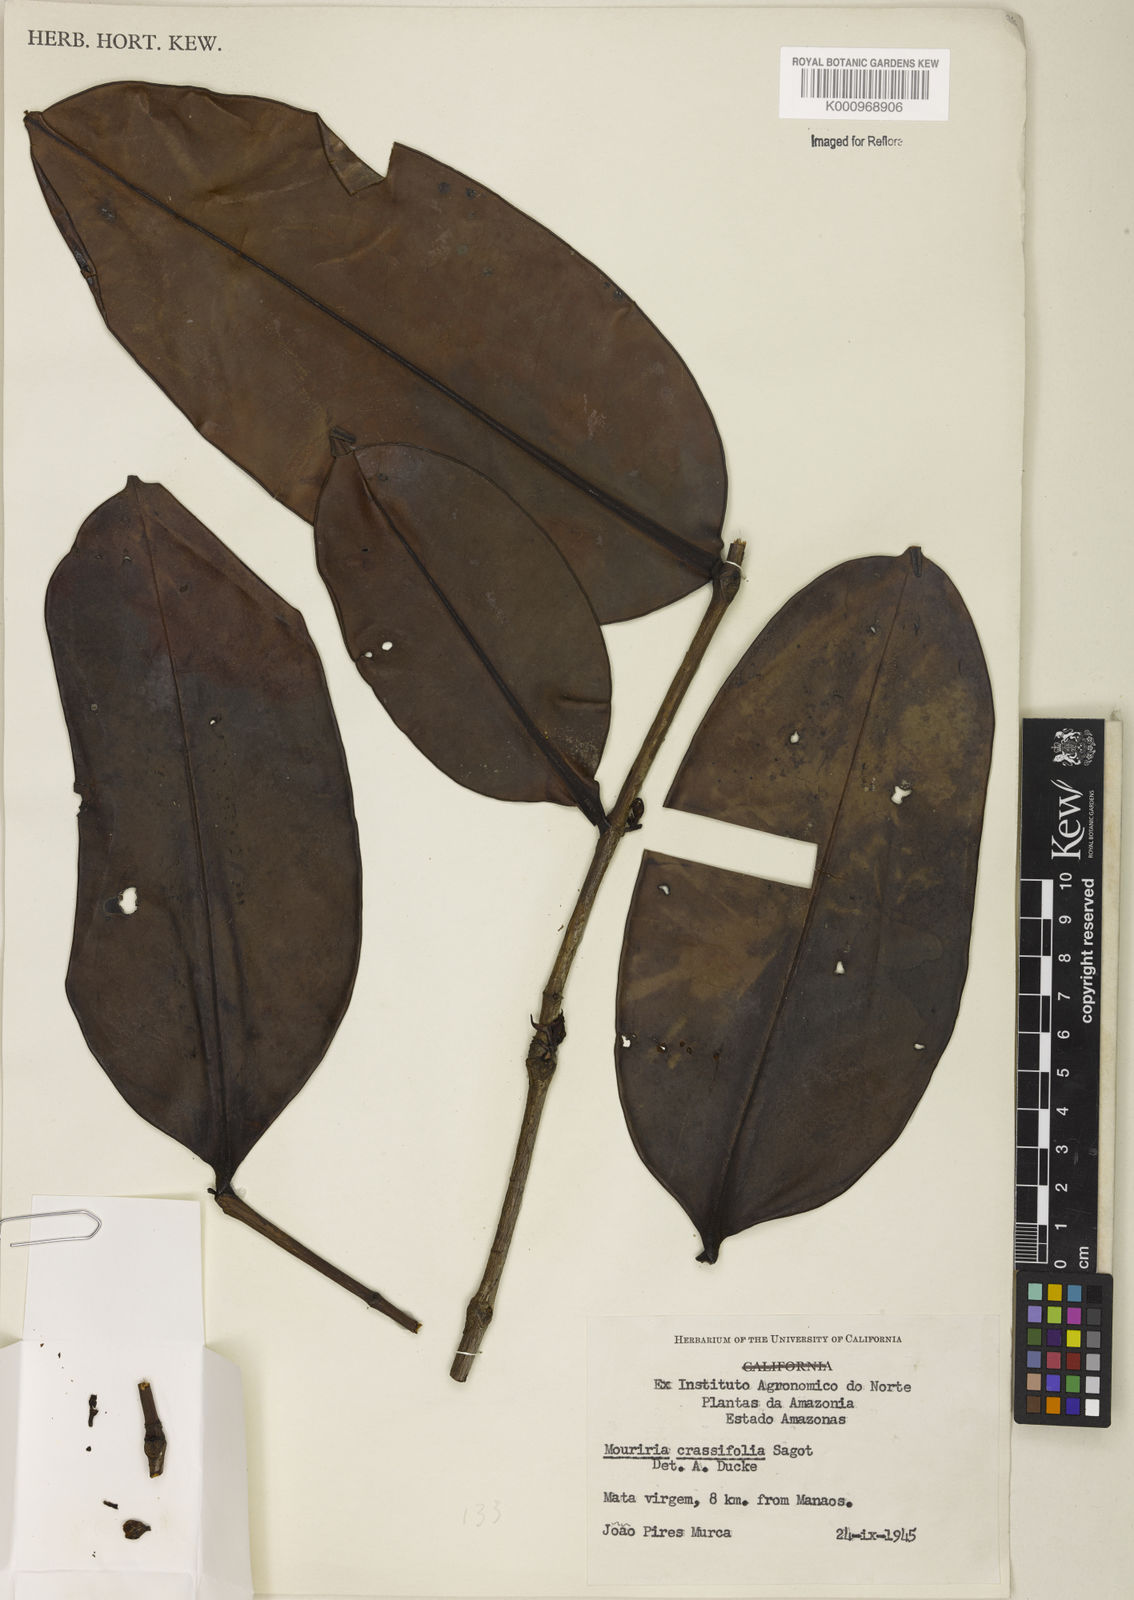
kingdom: Plantae
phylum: Tracheophyta
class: Magnoliopsida
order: Myrtales
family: Melastomataceae
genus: Mouriri
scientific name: Mouriri crassifolia
